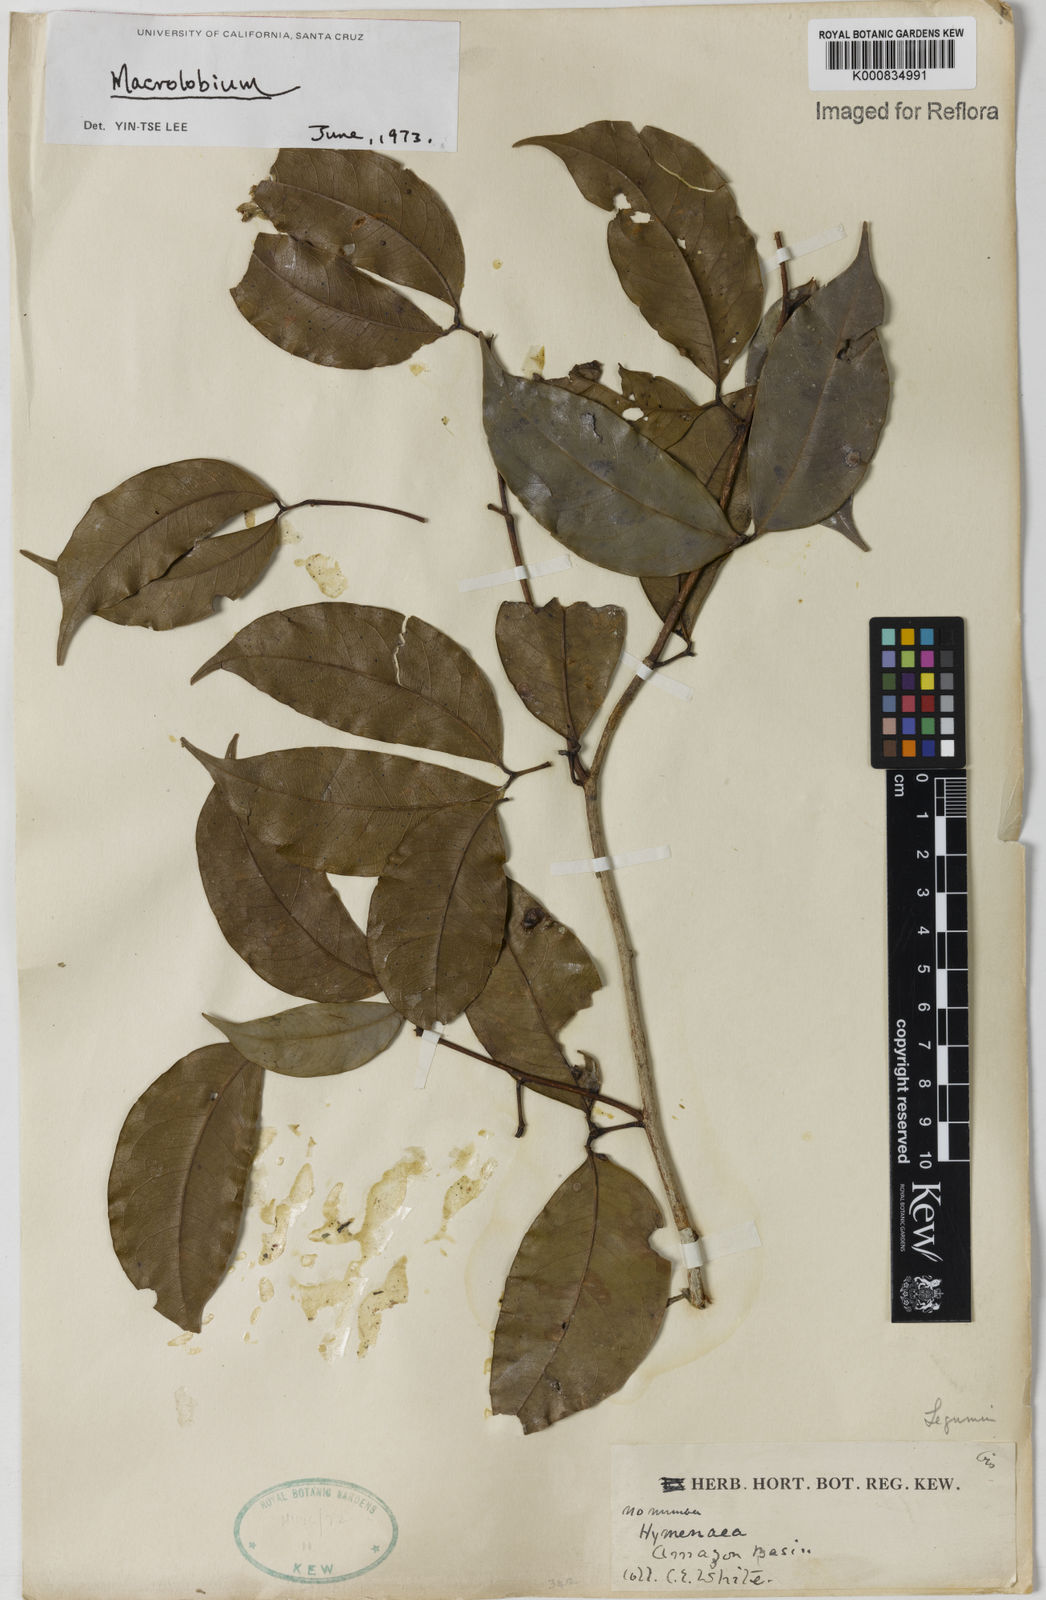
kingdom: Plantae
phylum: Tracheophyta
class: Magnoliopsida
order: Fabales
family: Fabaceae
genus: Hymenaea
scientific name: Hymenaea
